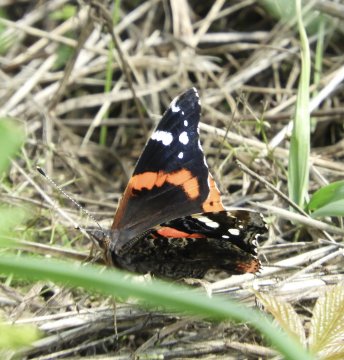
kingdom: Animalia
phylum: Arthropoda
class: Insecta
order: Lepidoptera
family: Nymphalidae
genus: Vanessa
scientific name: Vanessa atalanta
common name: Red Admiral
